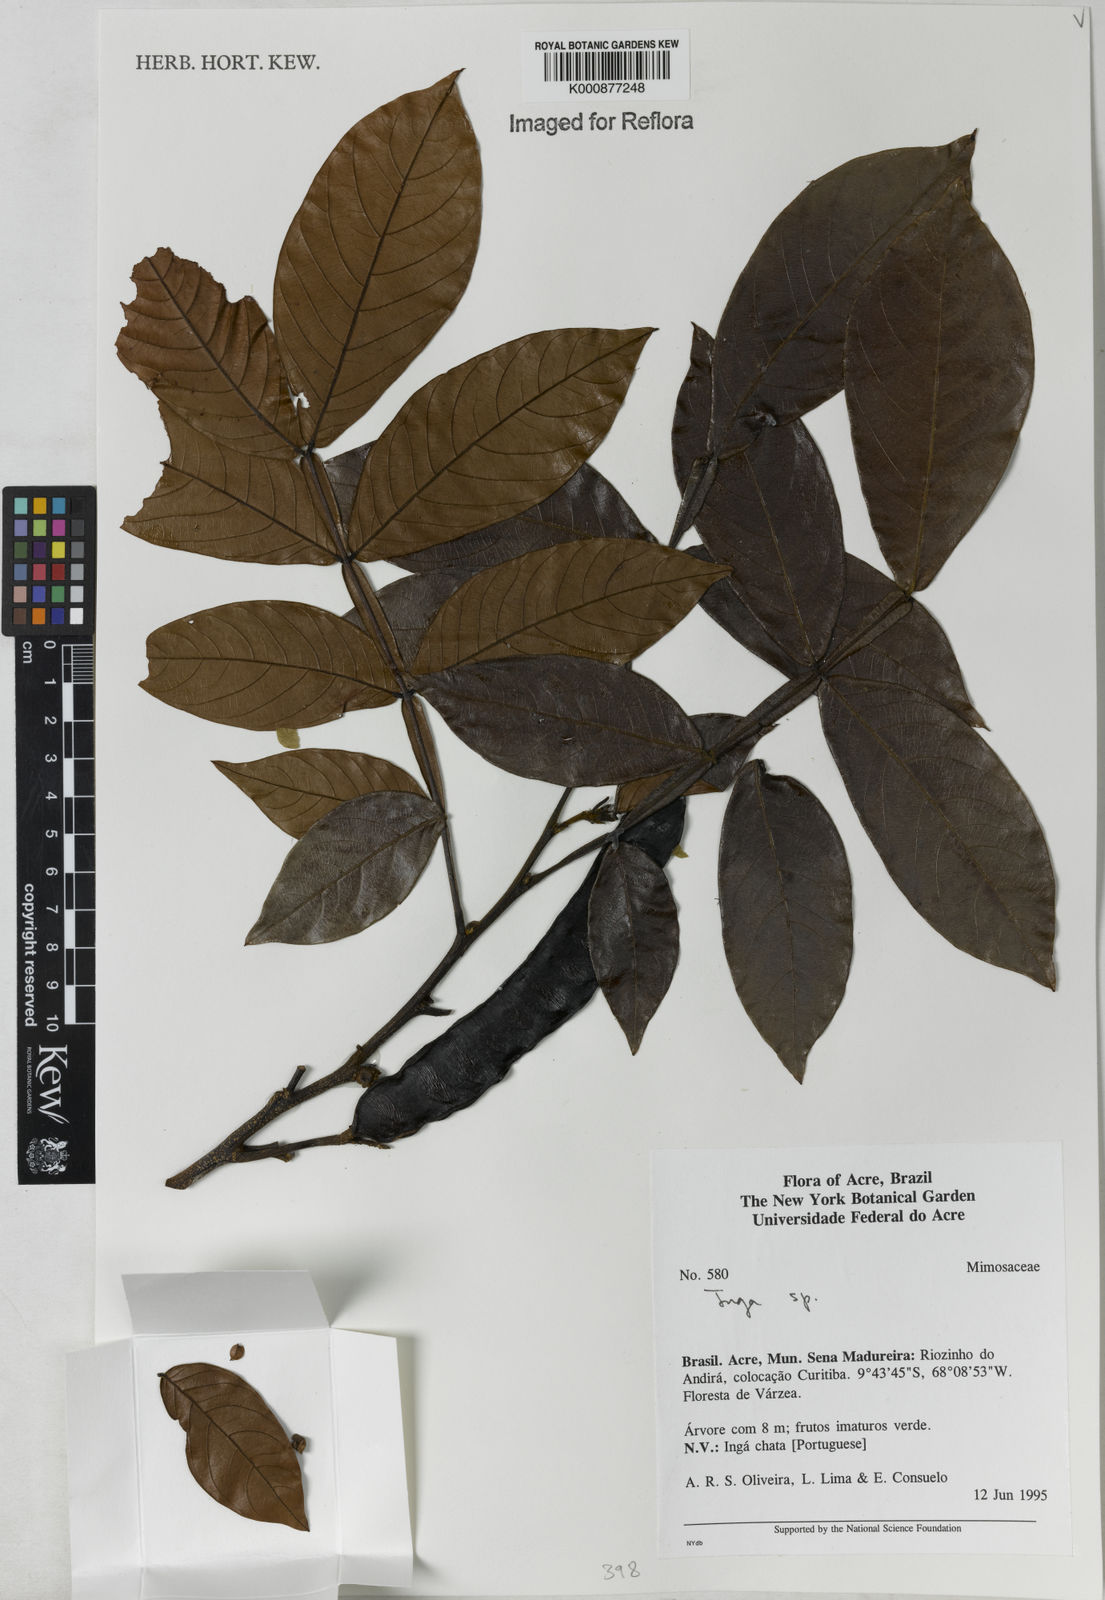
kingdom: Plantae
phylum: Tracheophyta
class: Magnoliopsida
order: Fabales
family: Fabaceae
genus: Inga
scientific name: Inga
